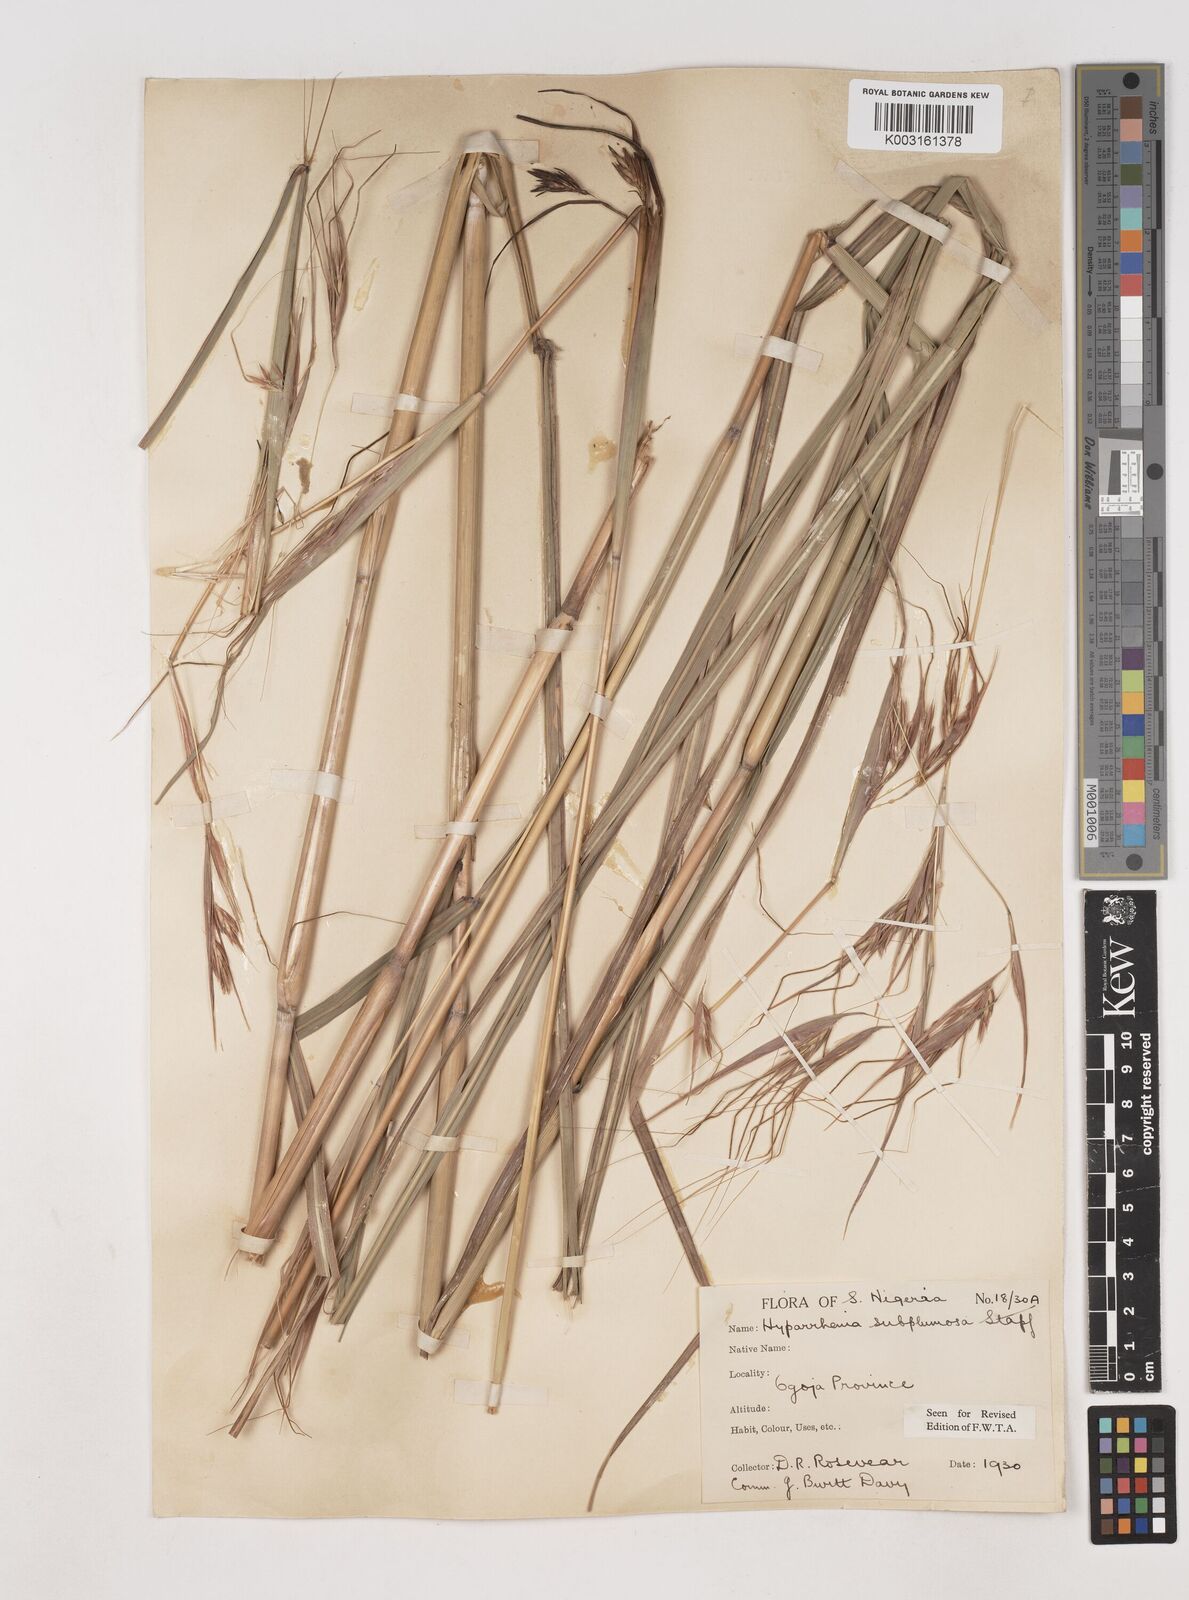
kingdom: Plantae
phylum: Tracheophyta
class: Liliopsida
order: Poales
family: Poaceae
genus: Hyparrhenia
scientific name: Hyparrhenia subplumosa
